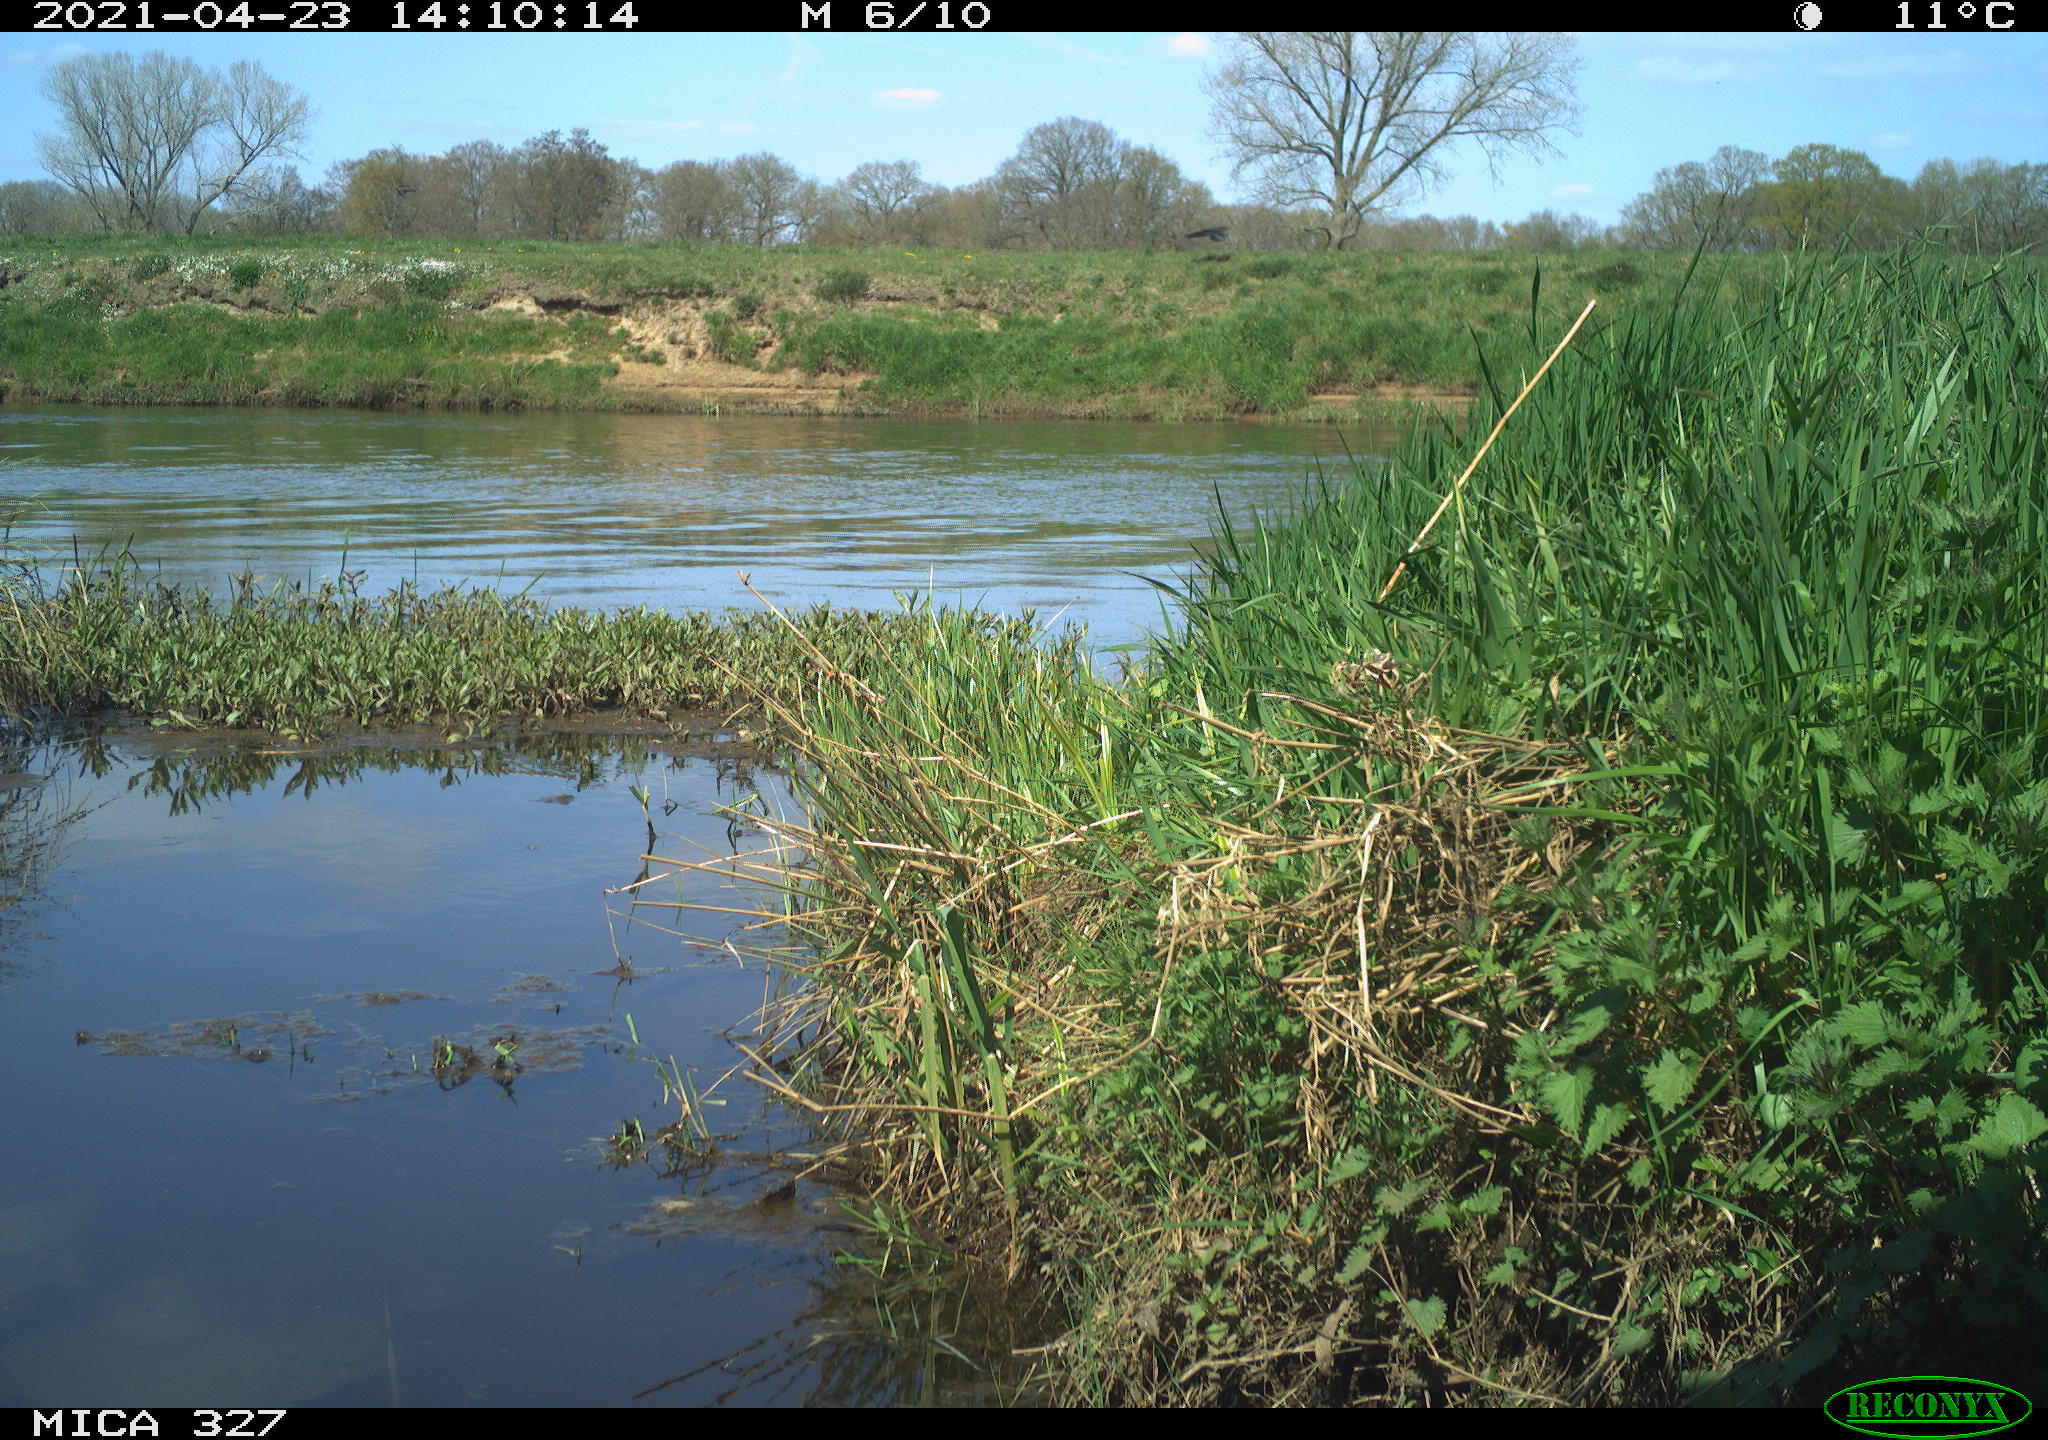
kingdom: Animalia
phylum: Chordata
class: Aves
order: Passeriformes
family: Corvidae
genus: Corvus
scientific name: Corvus corone
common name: Carrion crow
